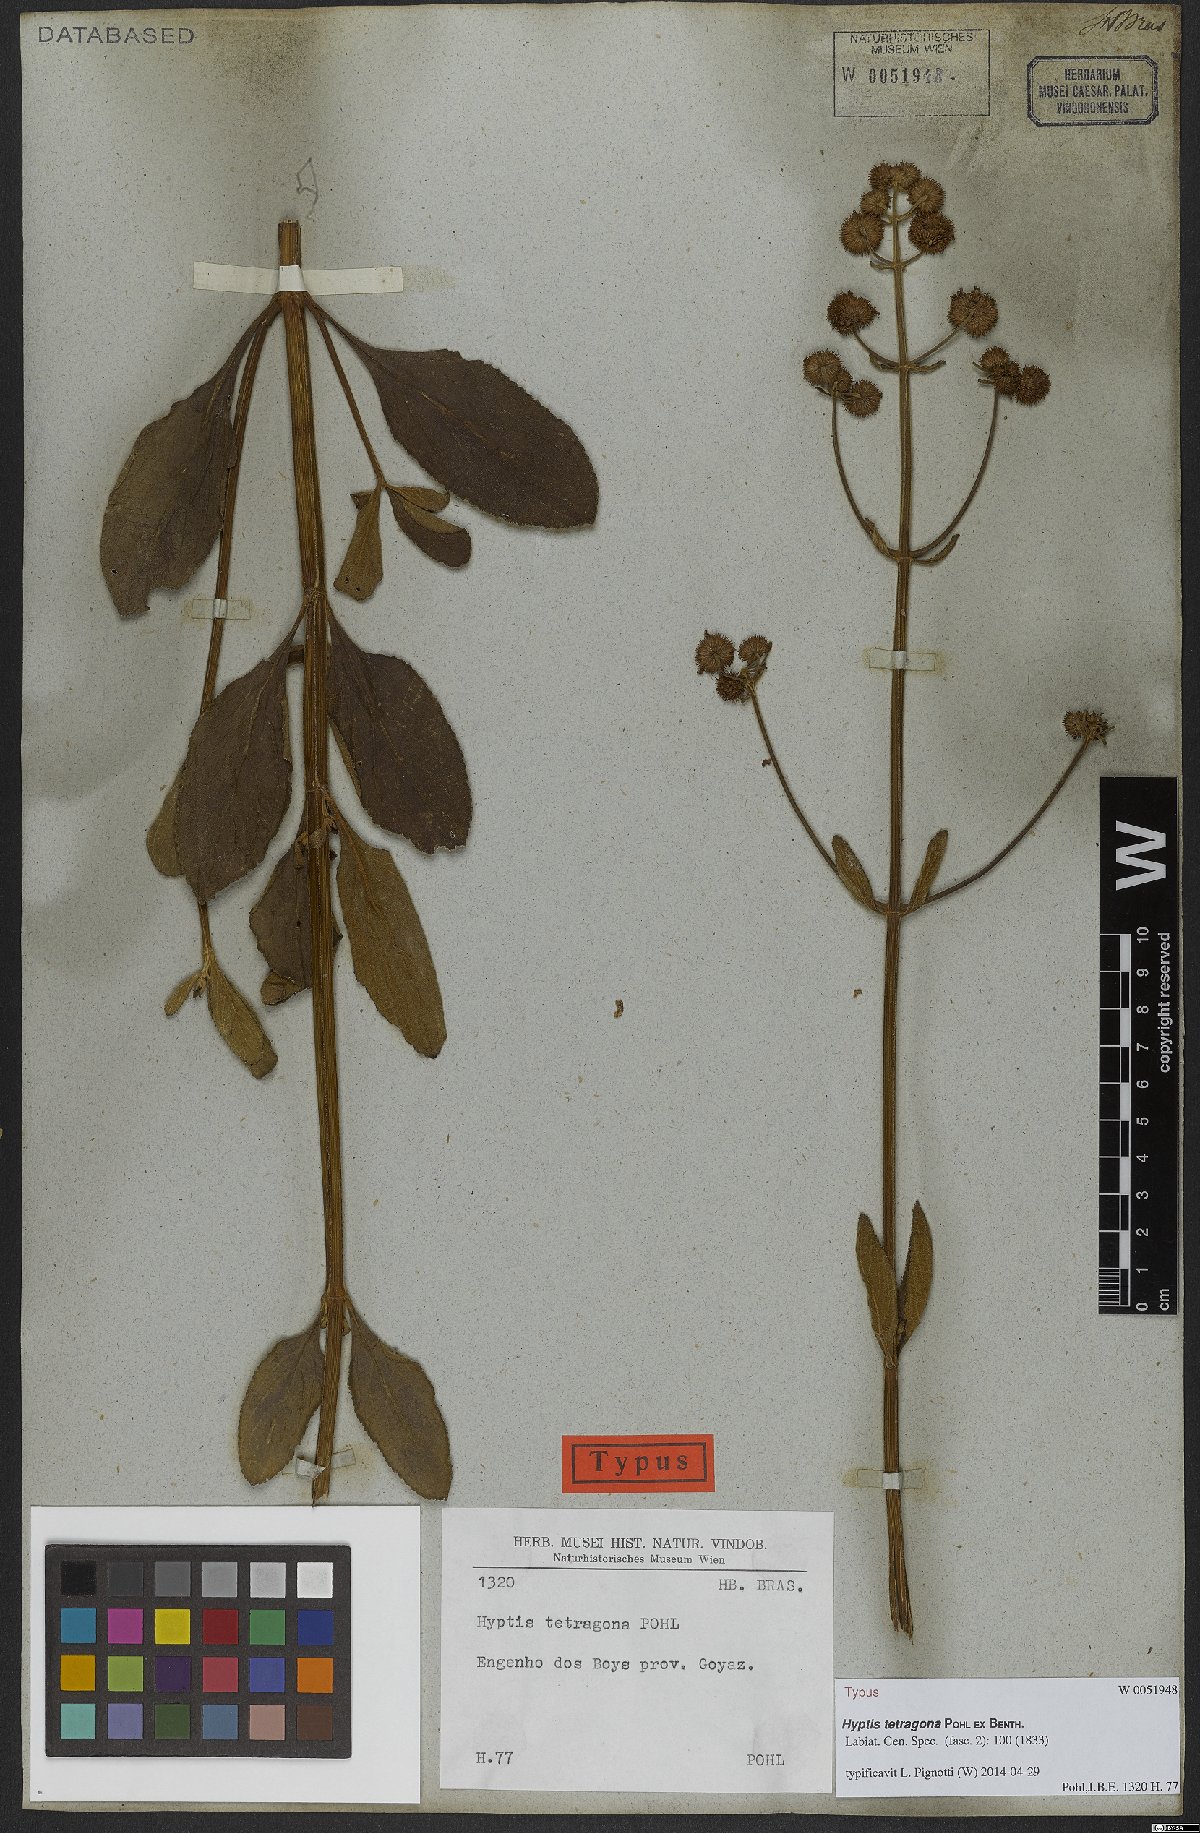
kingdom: Plantae
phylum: Tracheophyta
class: Magnoliopsida
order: Lamiales
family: Lamiaceae
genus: Hyptis
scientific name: Hyptis tetragona
